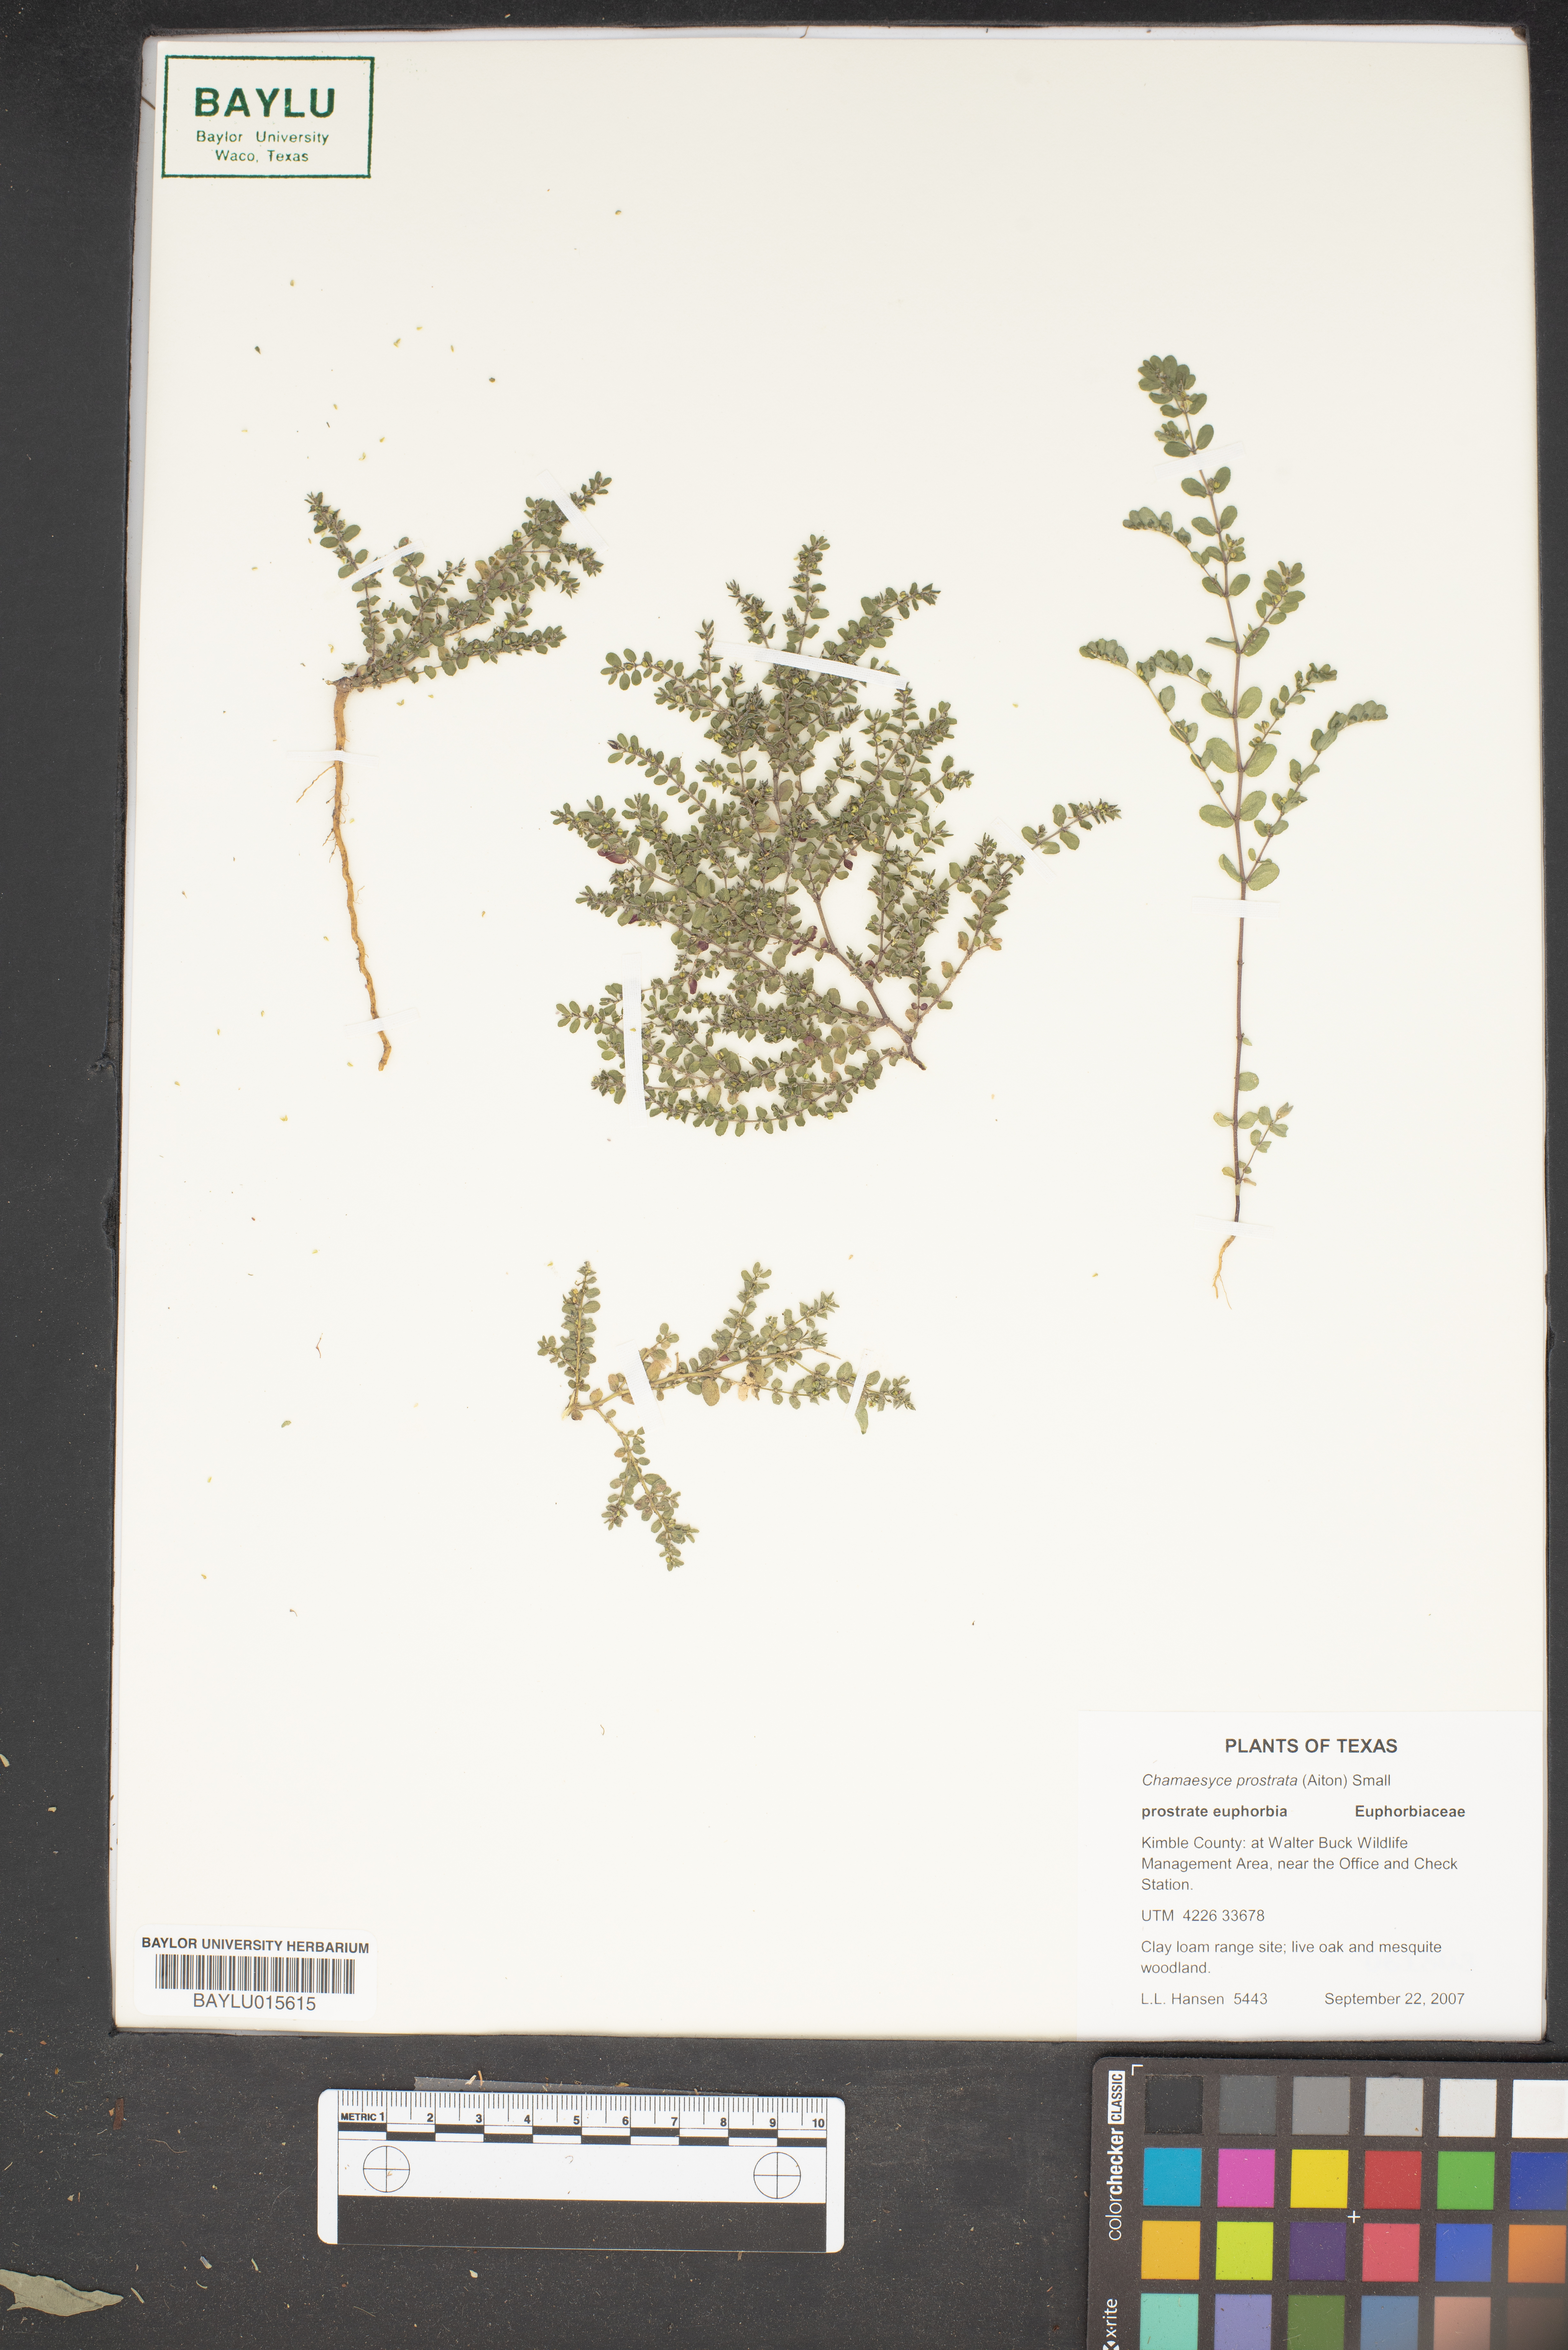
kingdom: Plantae
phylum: Tracheophyta
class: Magnoliopsida
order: Malpighiales
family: Euphorbiaceae
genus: Euphorbia
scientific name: Euphorbia prostrata
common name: Prostrate sandmat
